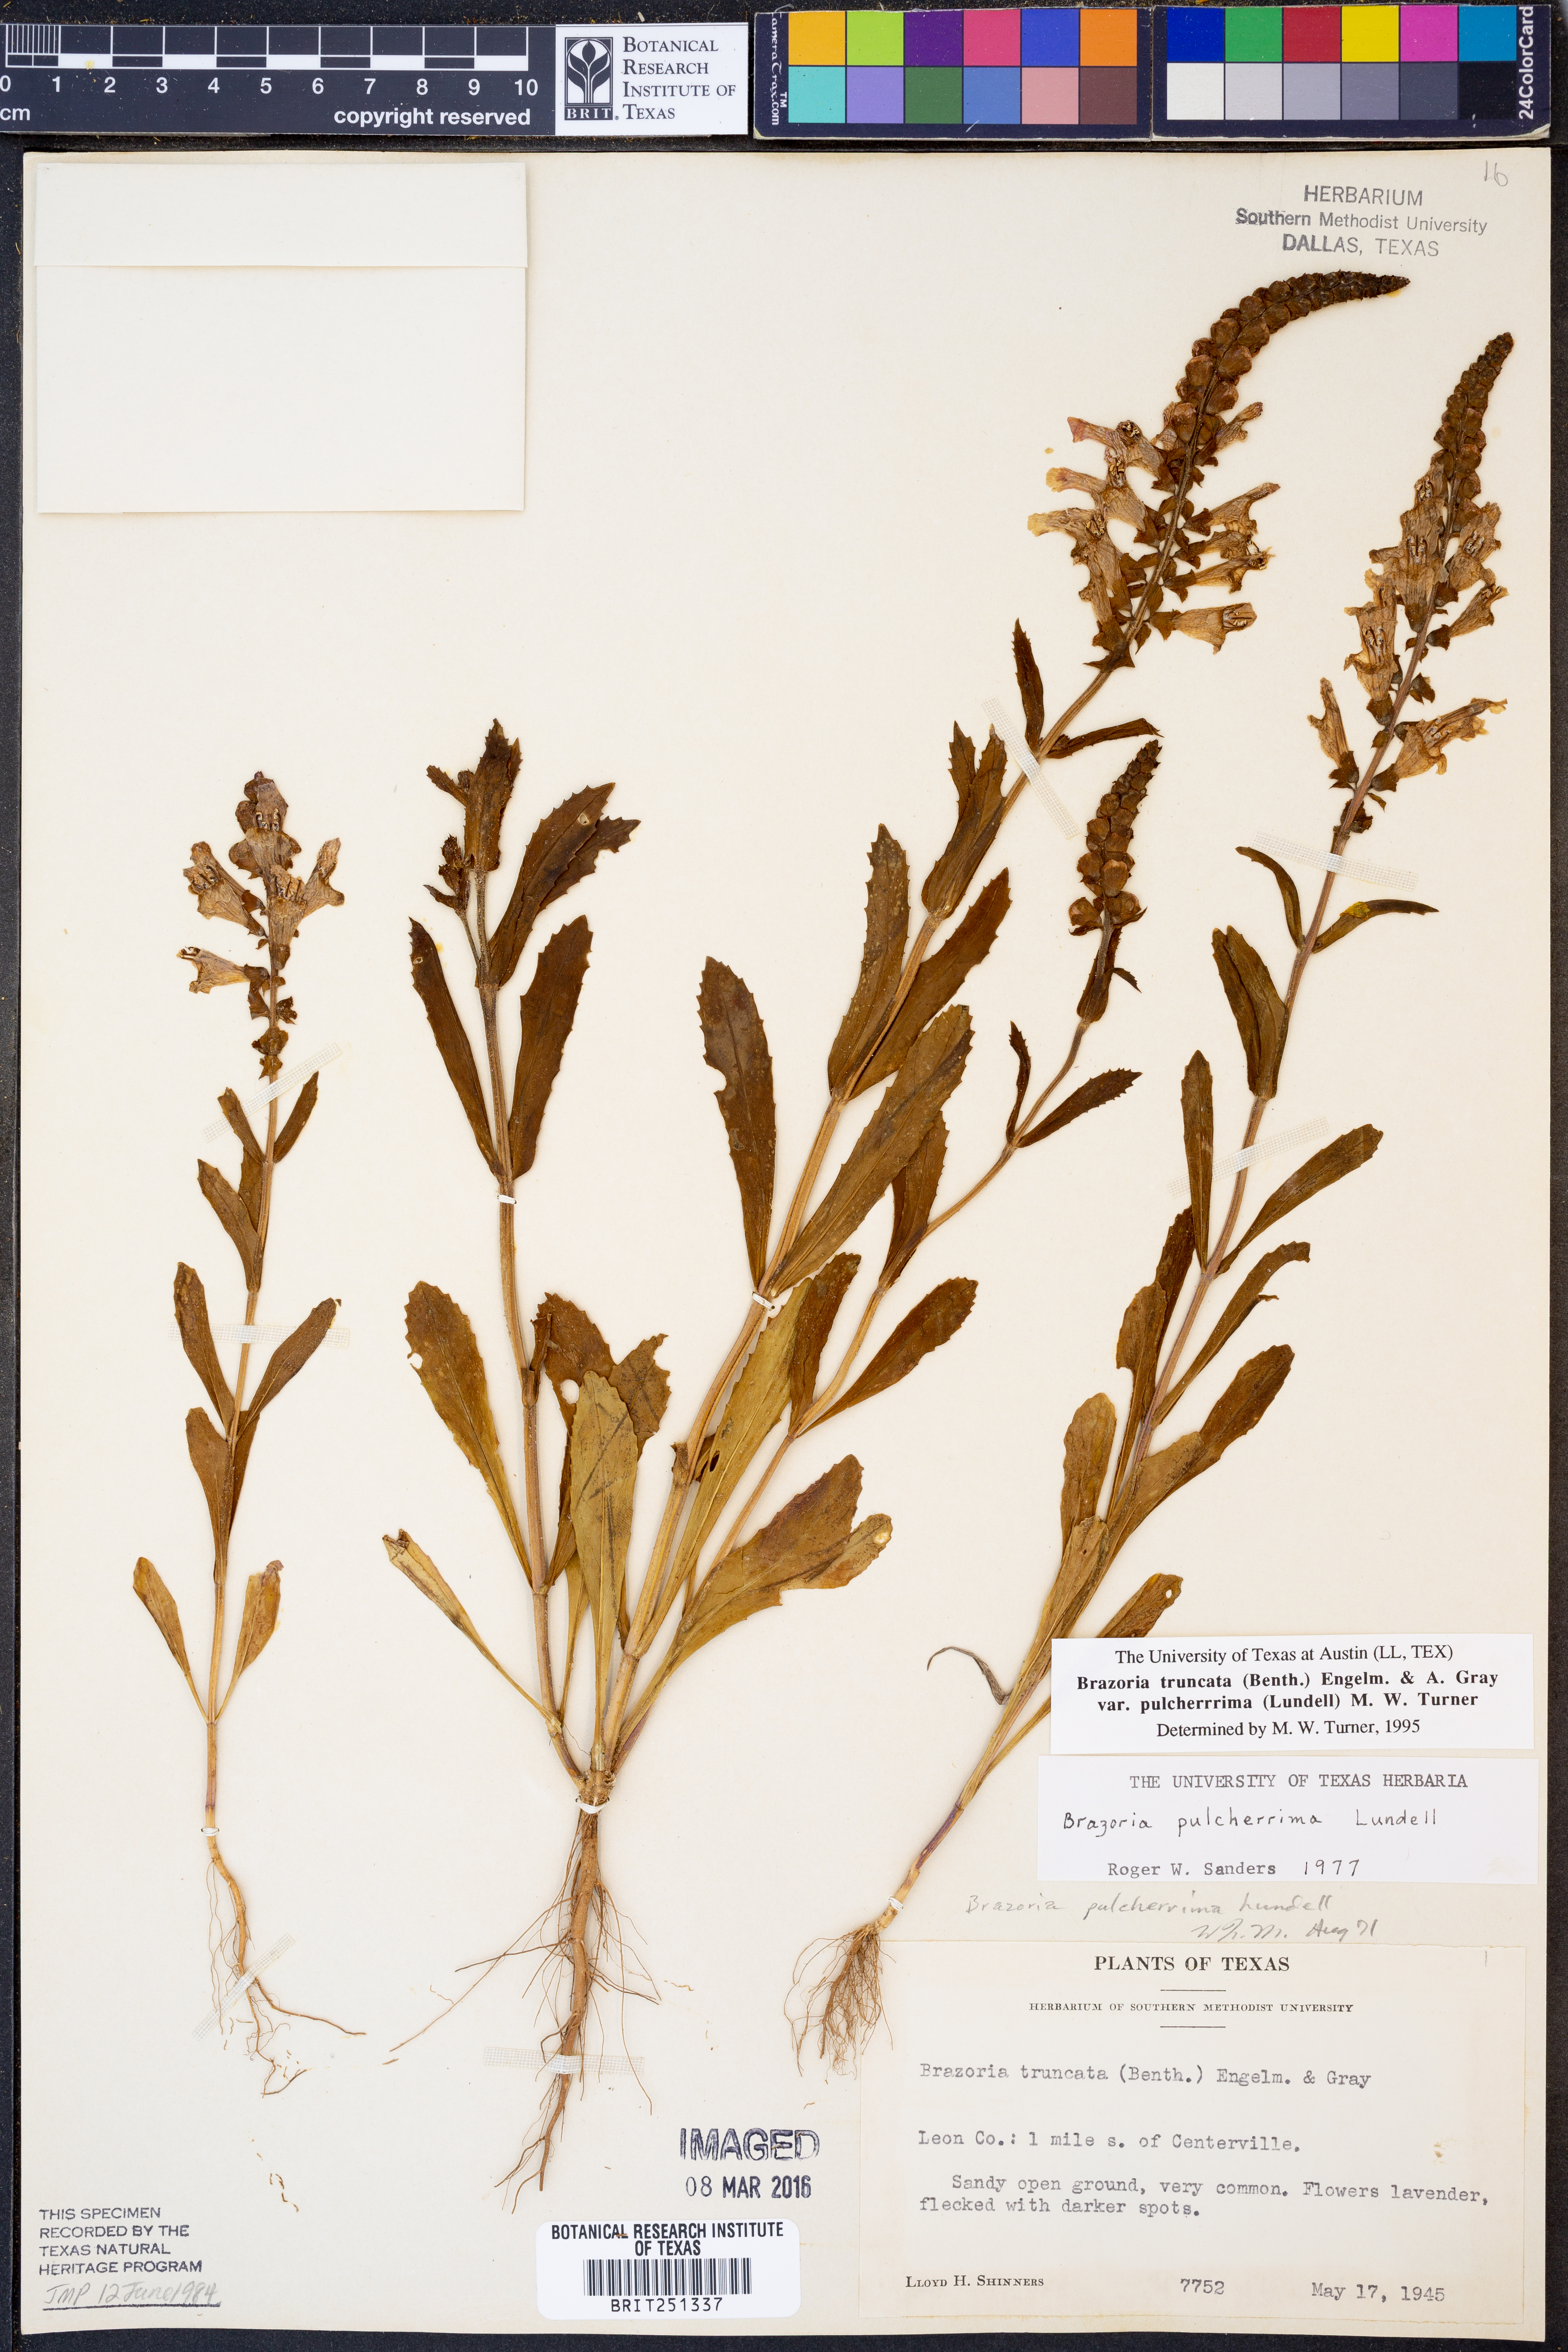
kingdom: Plantae
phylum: Tracheophyta
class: Magnoliopsida
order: Lamiales
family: Lamiaceae
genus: Brazoria
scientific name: Brazoria truncata
